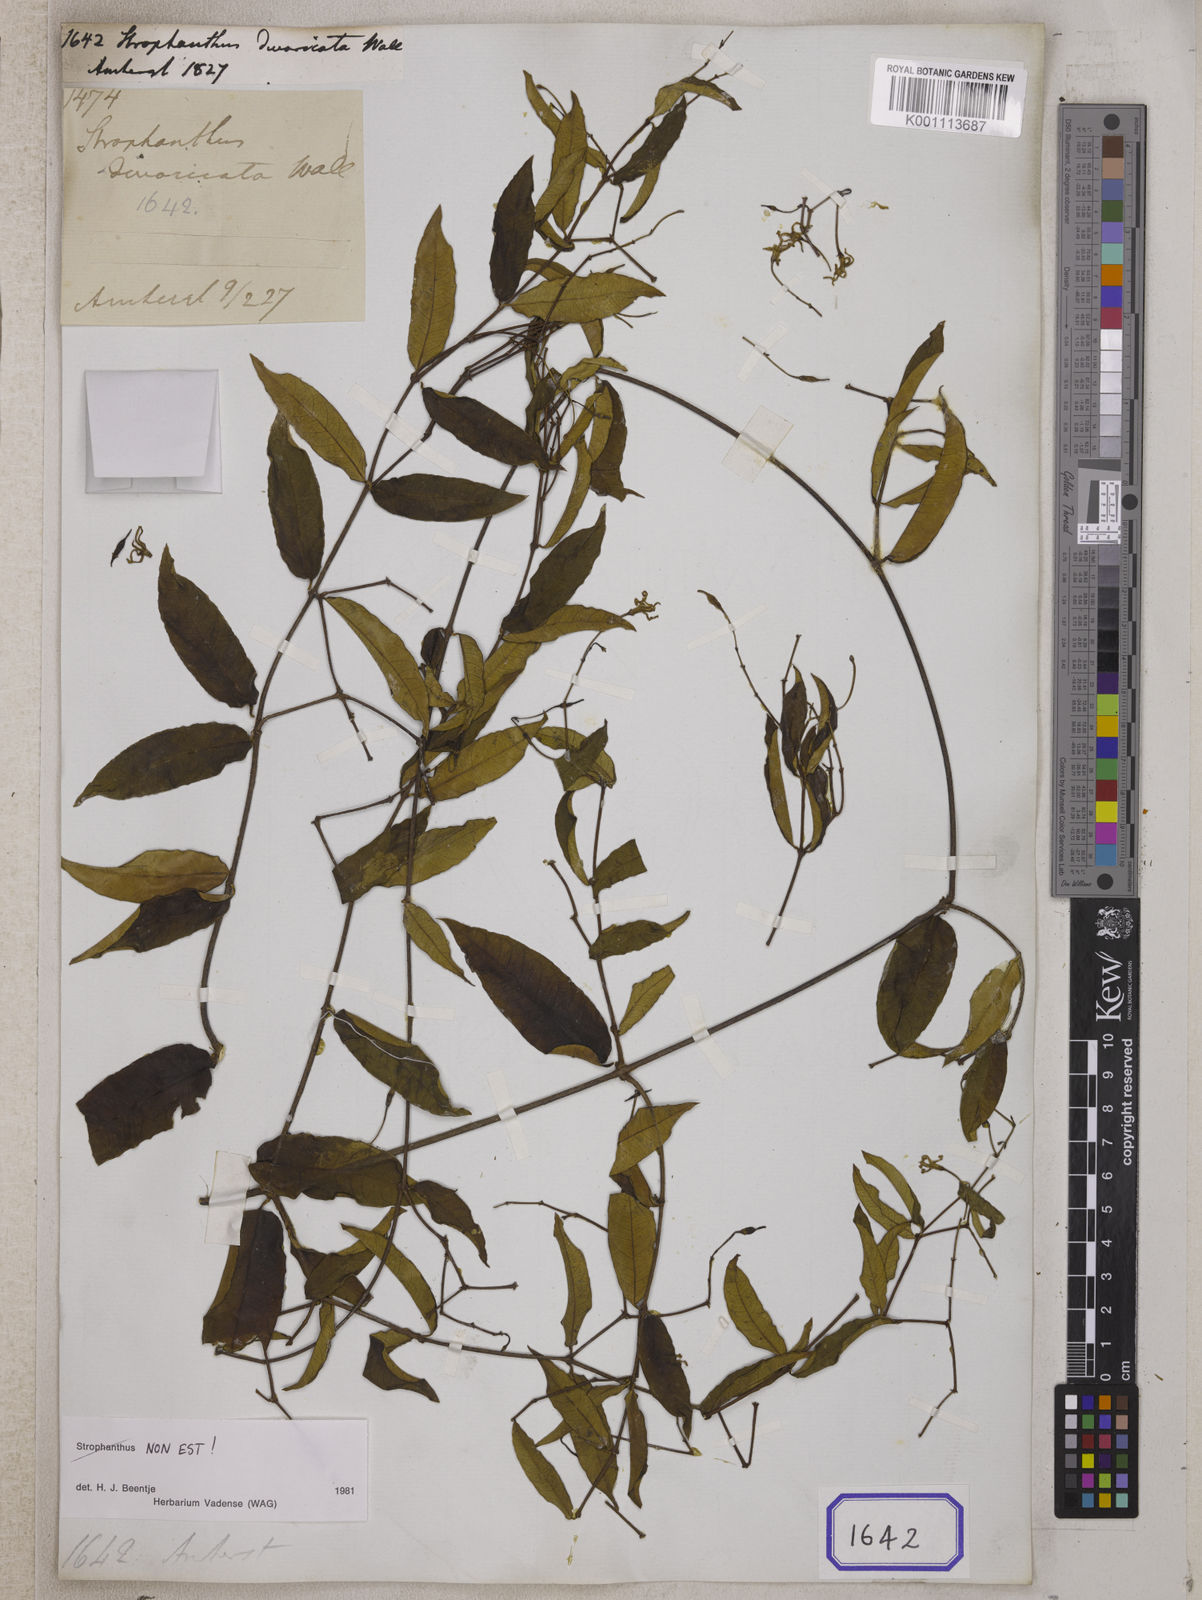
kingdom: Plantae
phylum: Tracheophyta
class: Magnoliopsida
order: Gentianales
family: Apocynaceae
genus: Strophanthus
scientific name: Strophanthus
